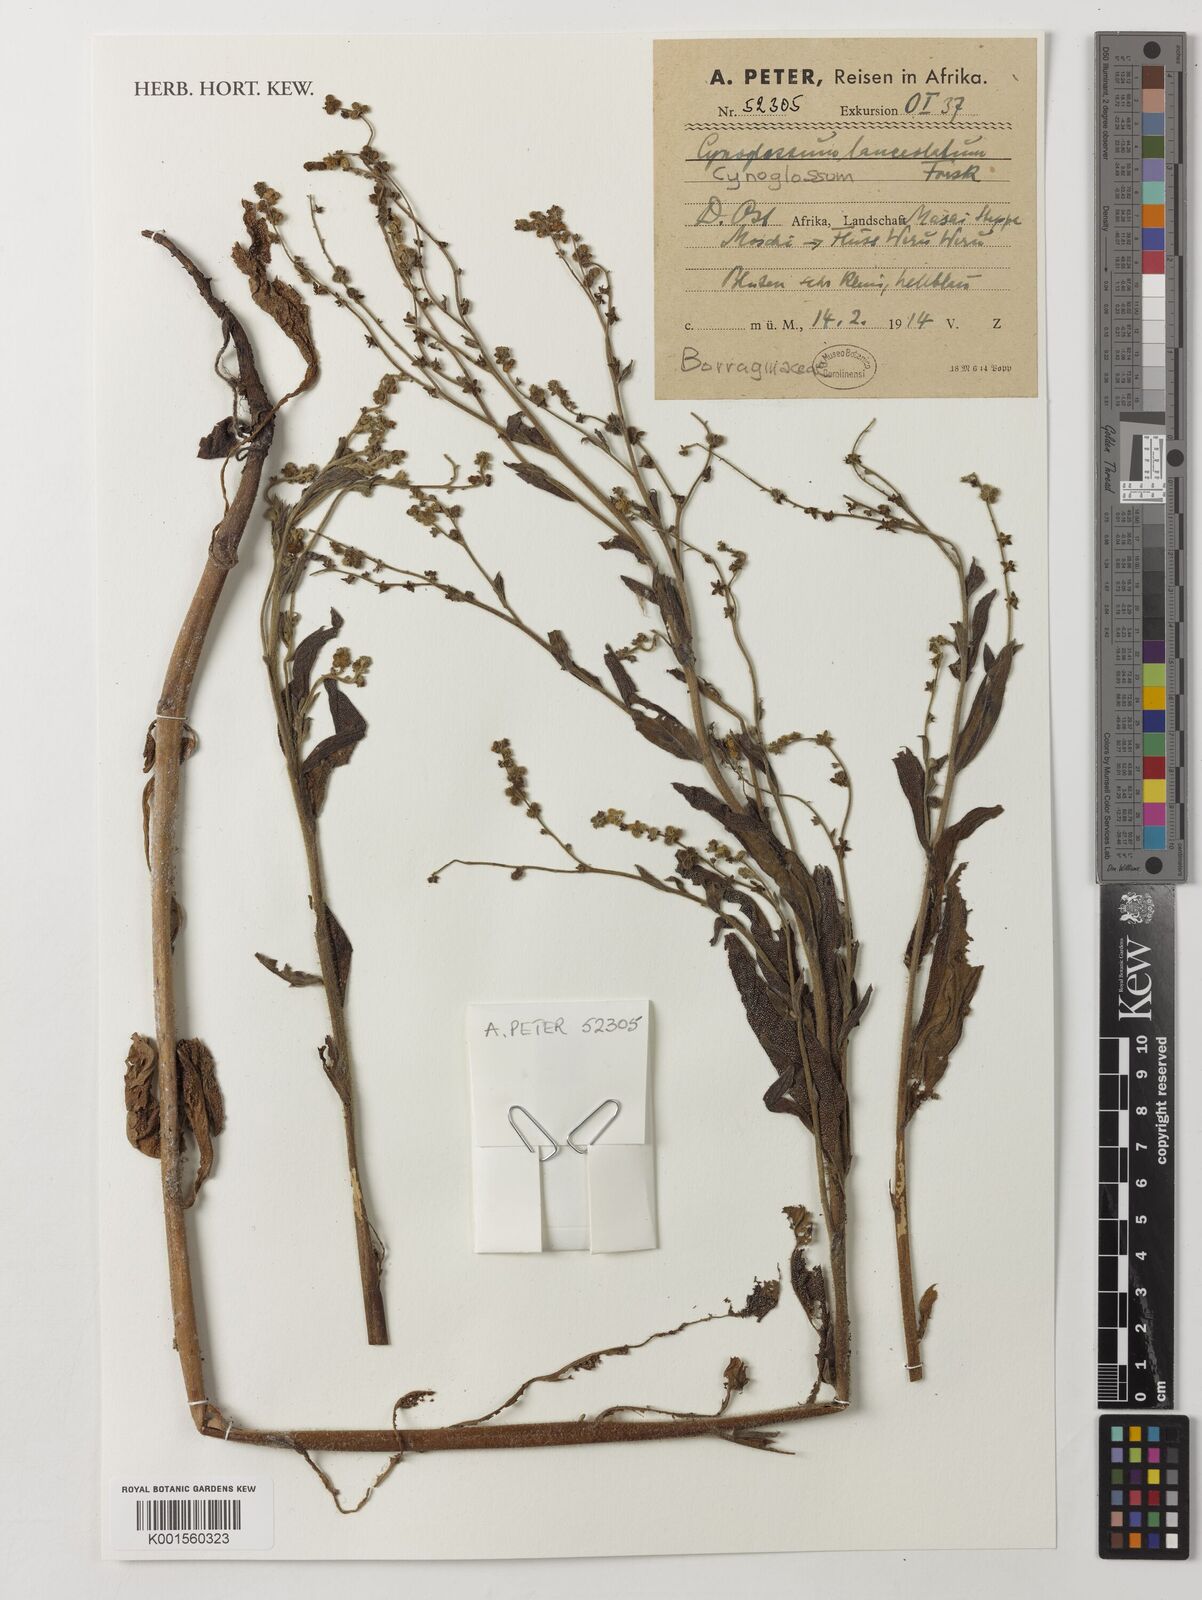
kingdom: Plantae
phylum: Tracheophyta
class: Magnoliopsida
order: Boraginales
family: Boraginaceae
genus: Paracynoglossum
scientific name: Paracynoglossum lanceolatum
